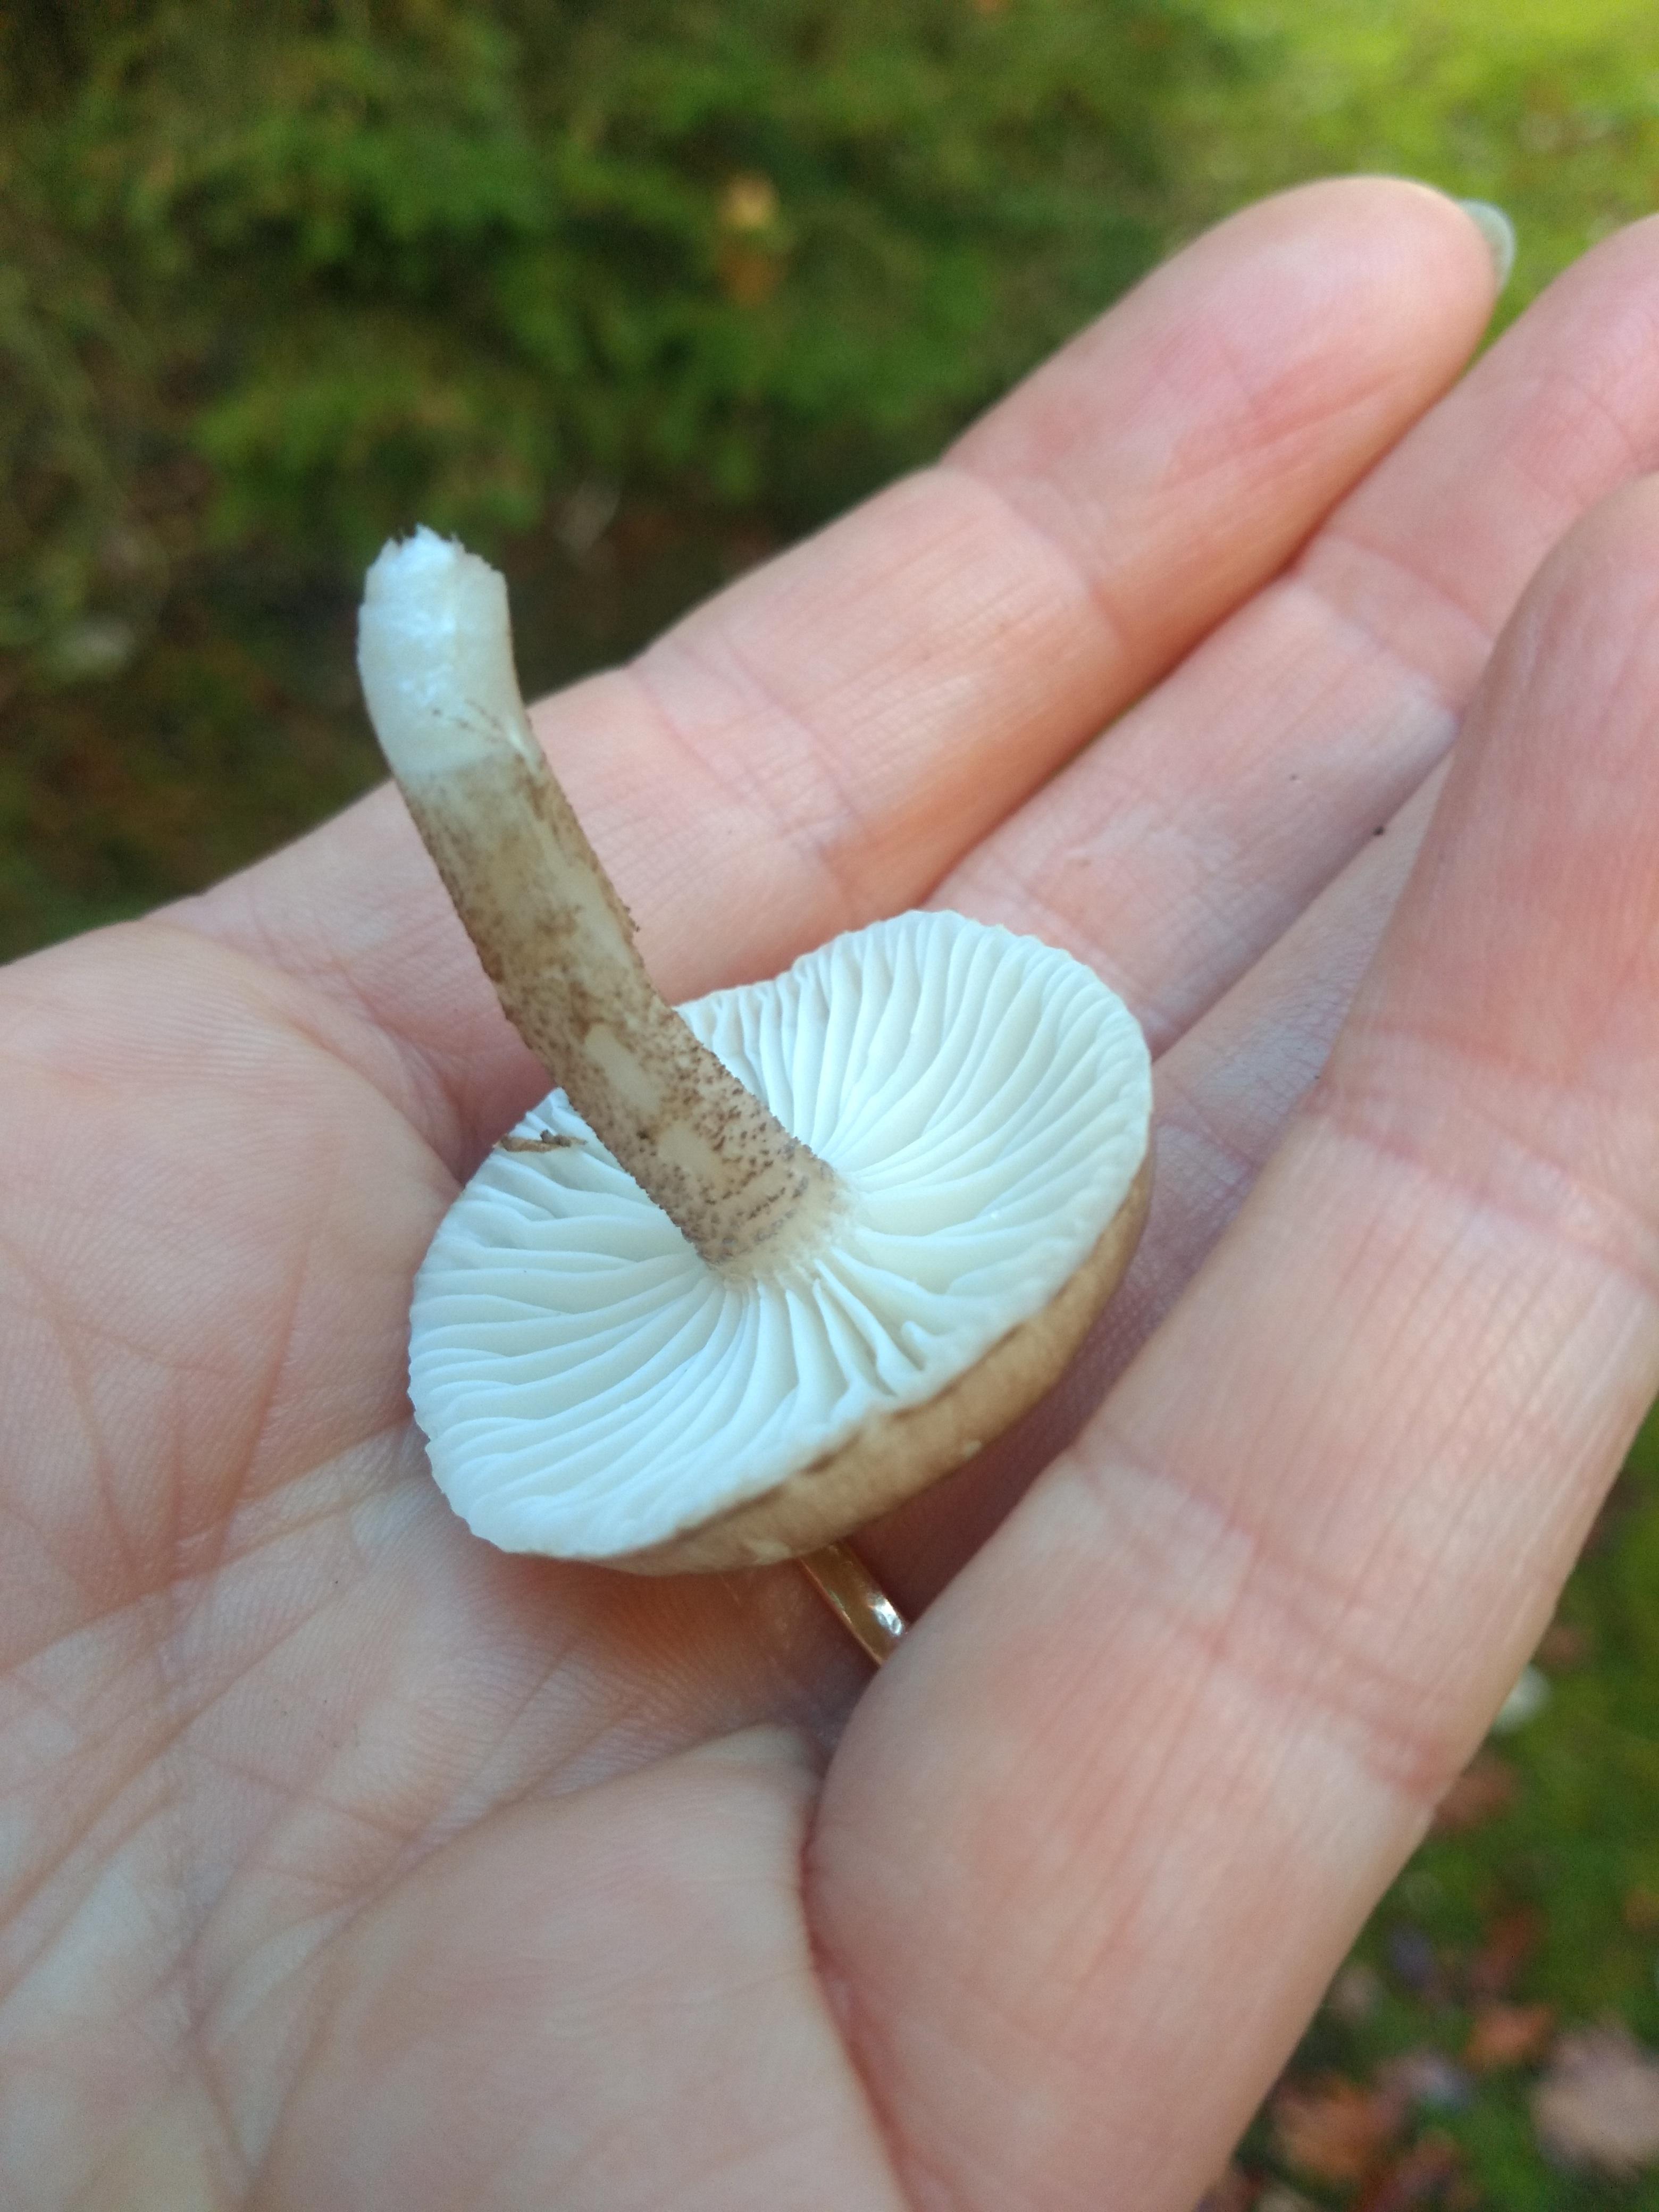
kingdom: Fungi
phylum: Basidiomycota
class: Agaricomycetes
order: Agaricales
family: Hygrophoraceae
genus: Hygrophorus
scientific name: Hygrophorus pustulatus
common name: mørkprikket sneglehat
